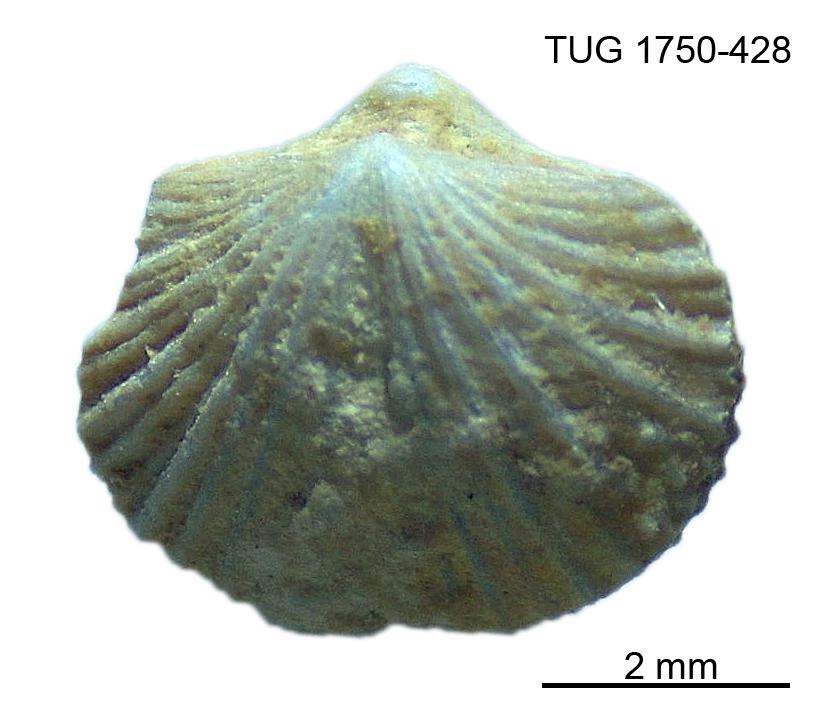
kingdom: Animalia
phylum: Brachiopoda
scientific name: Brachiopoda
